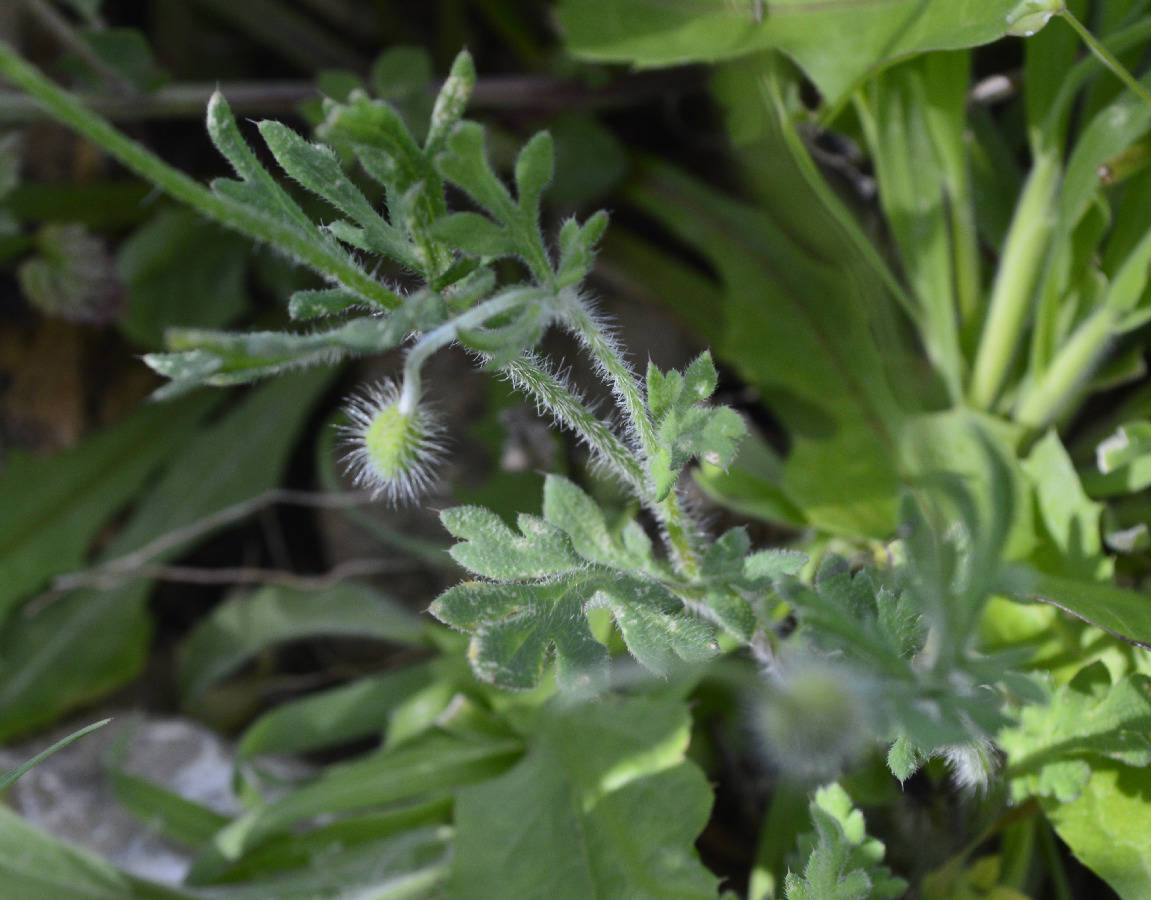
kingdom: Plantae
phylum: Tracheophyta
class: Magnoliopsida
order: Ranunculales
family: Papaveraceae
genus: Papaver
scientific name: Papaver dubium
